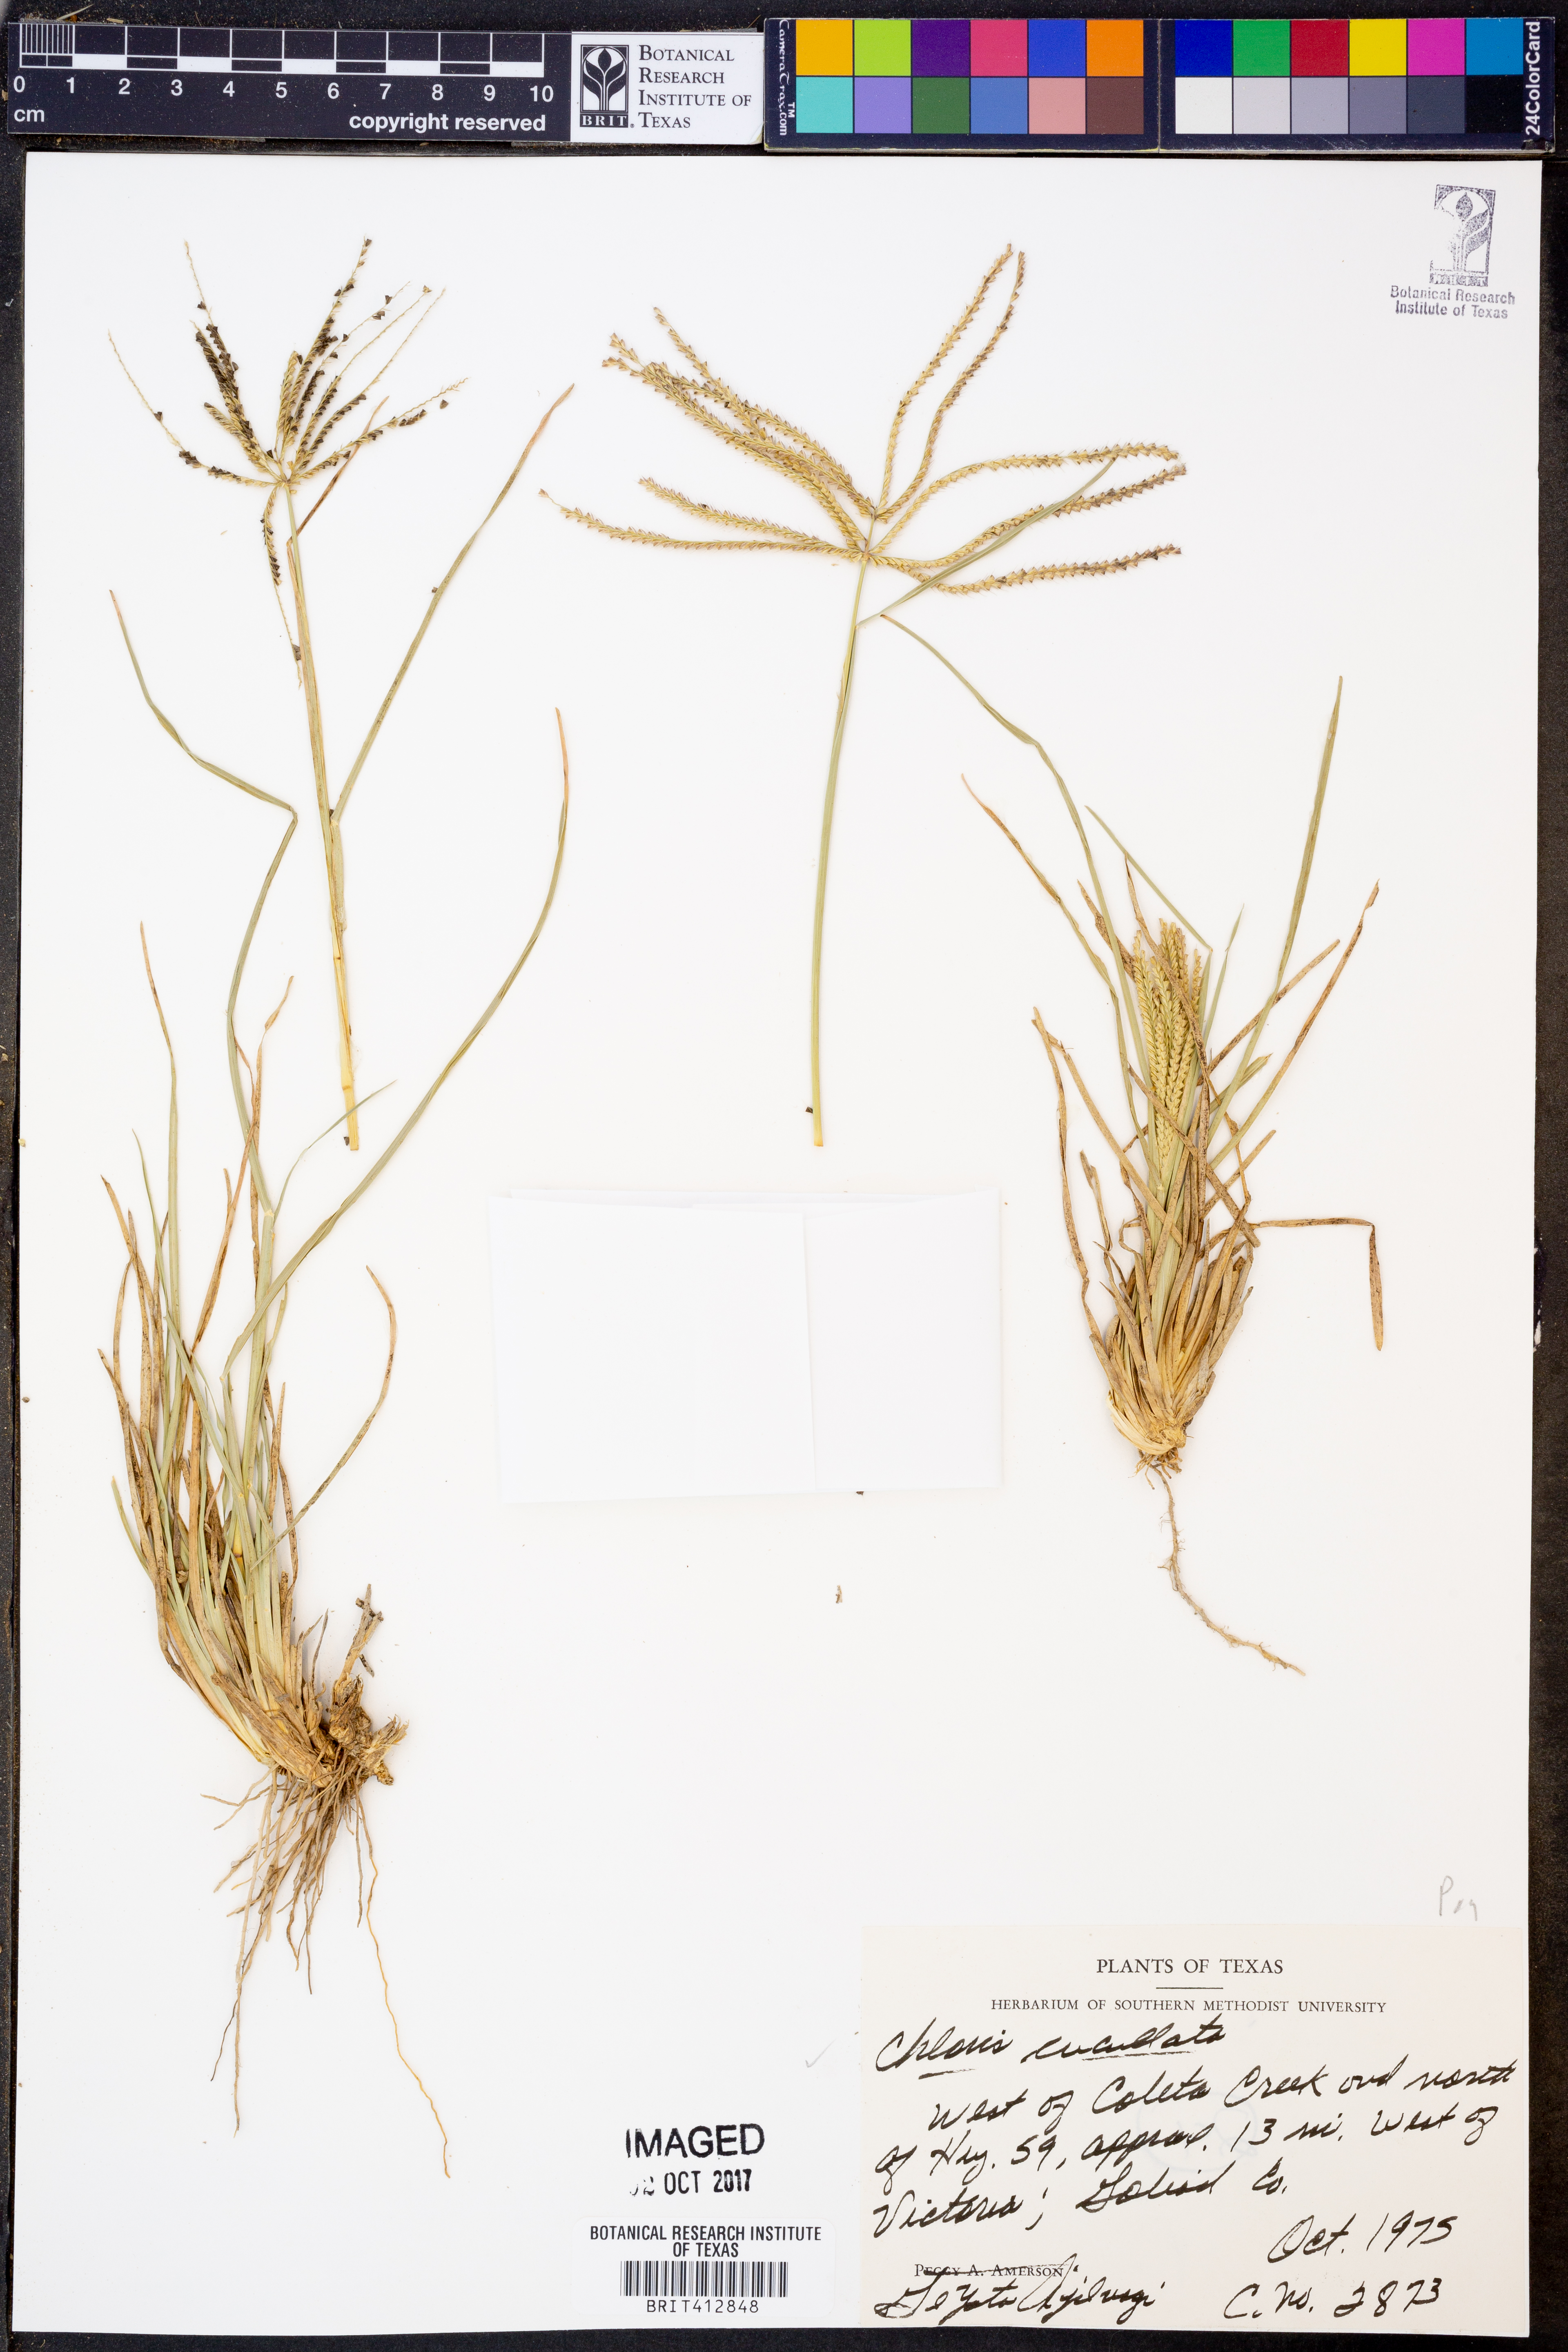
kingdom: Plantae
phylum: Tracheophyta
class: Liliopsida
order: Poales
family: Poaceae
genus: Chloris
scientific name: Chloris cucullata
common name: Hooded windmill grass
